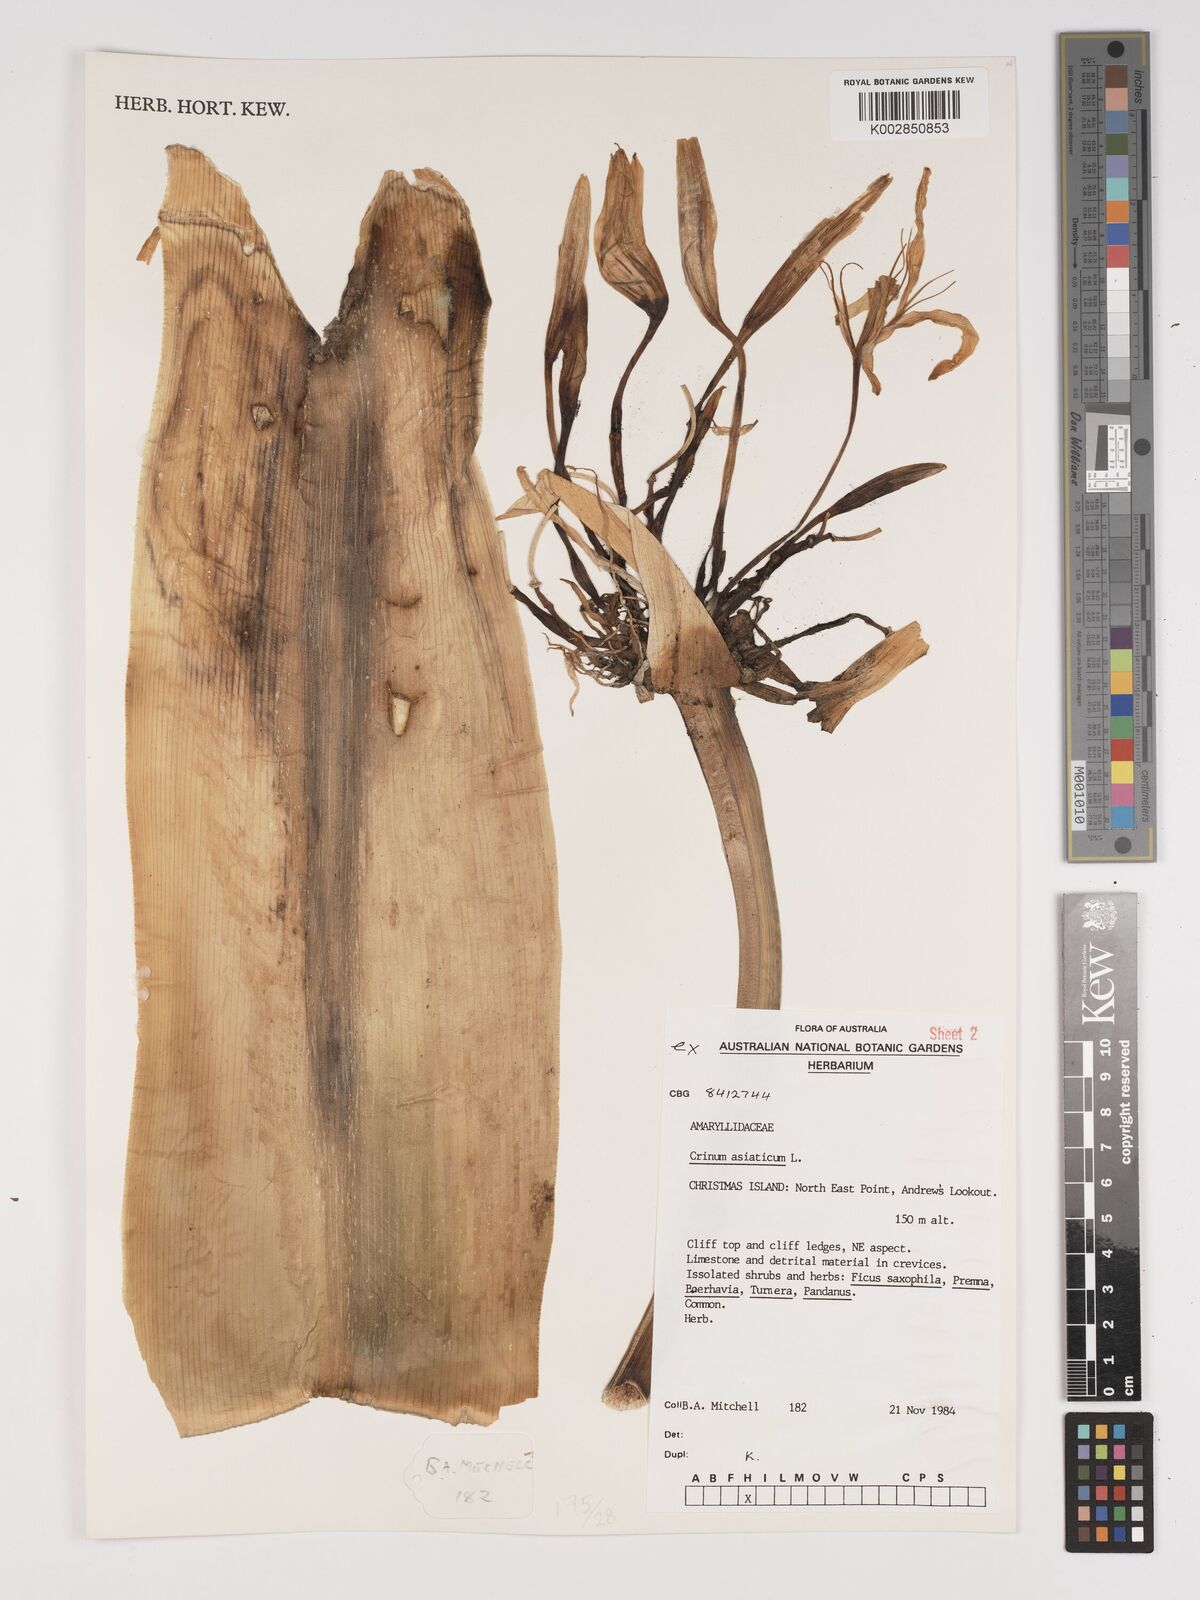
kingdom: Plantae
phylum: Tracheophyta
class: Liliopsida
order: Asparagales
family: Amaryllidaceae
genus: Crinum
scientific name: Crinum asiaticum
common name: Poisonbulb
